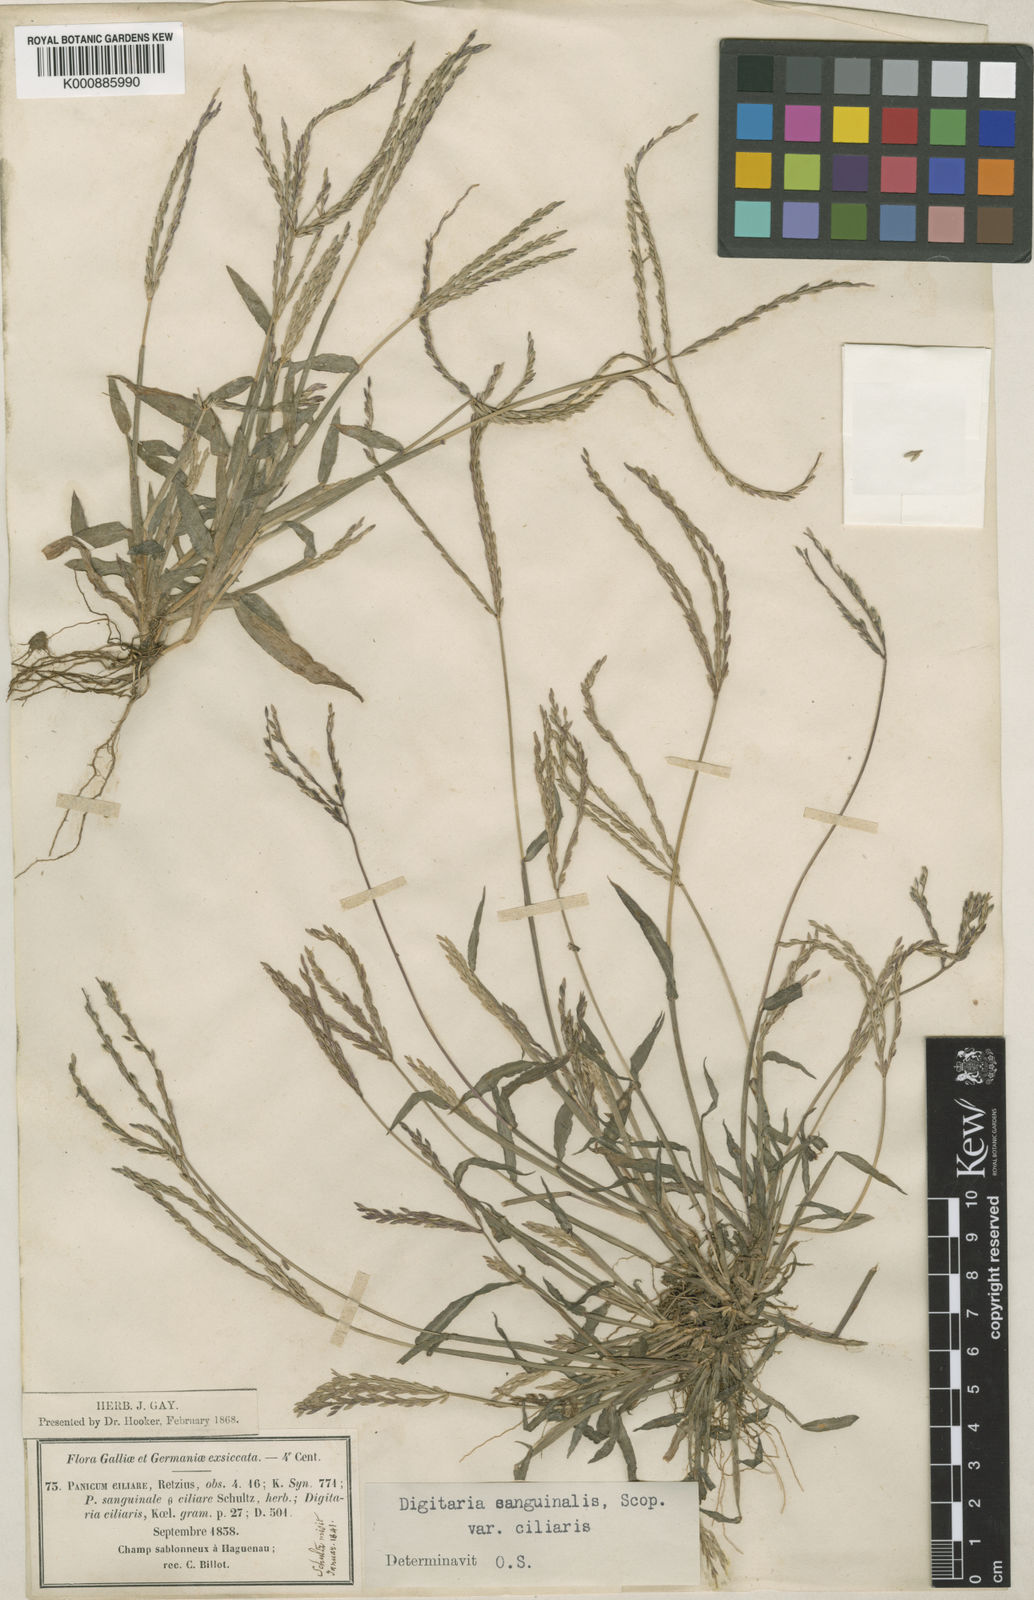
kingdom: Plantae
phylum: Tracheophyta
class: Liliopsida
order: Poales
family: Poaceae
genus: Digitaria
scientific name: Digitaria sanguinalis
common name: Hairy crabgrass
